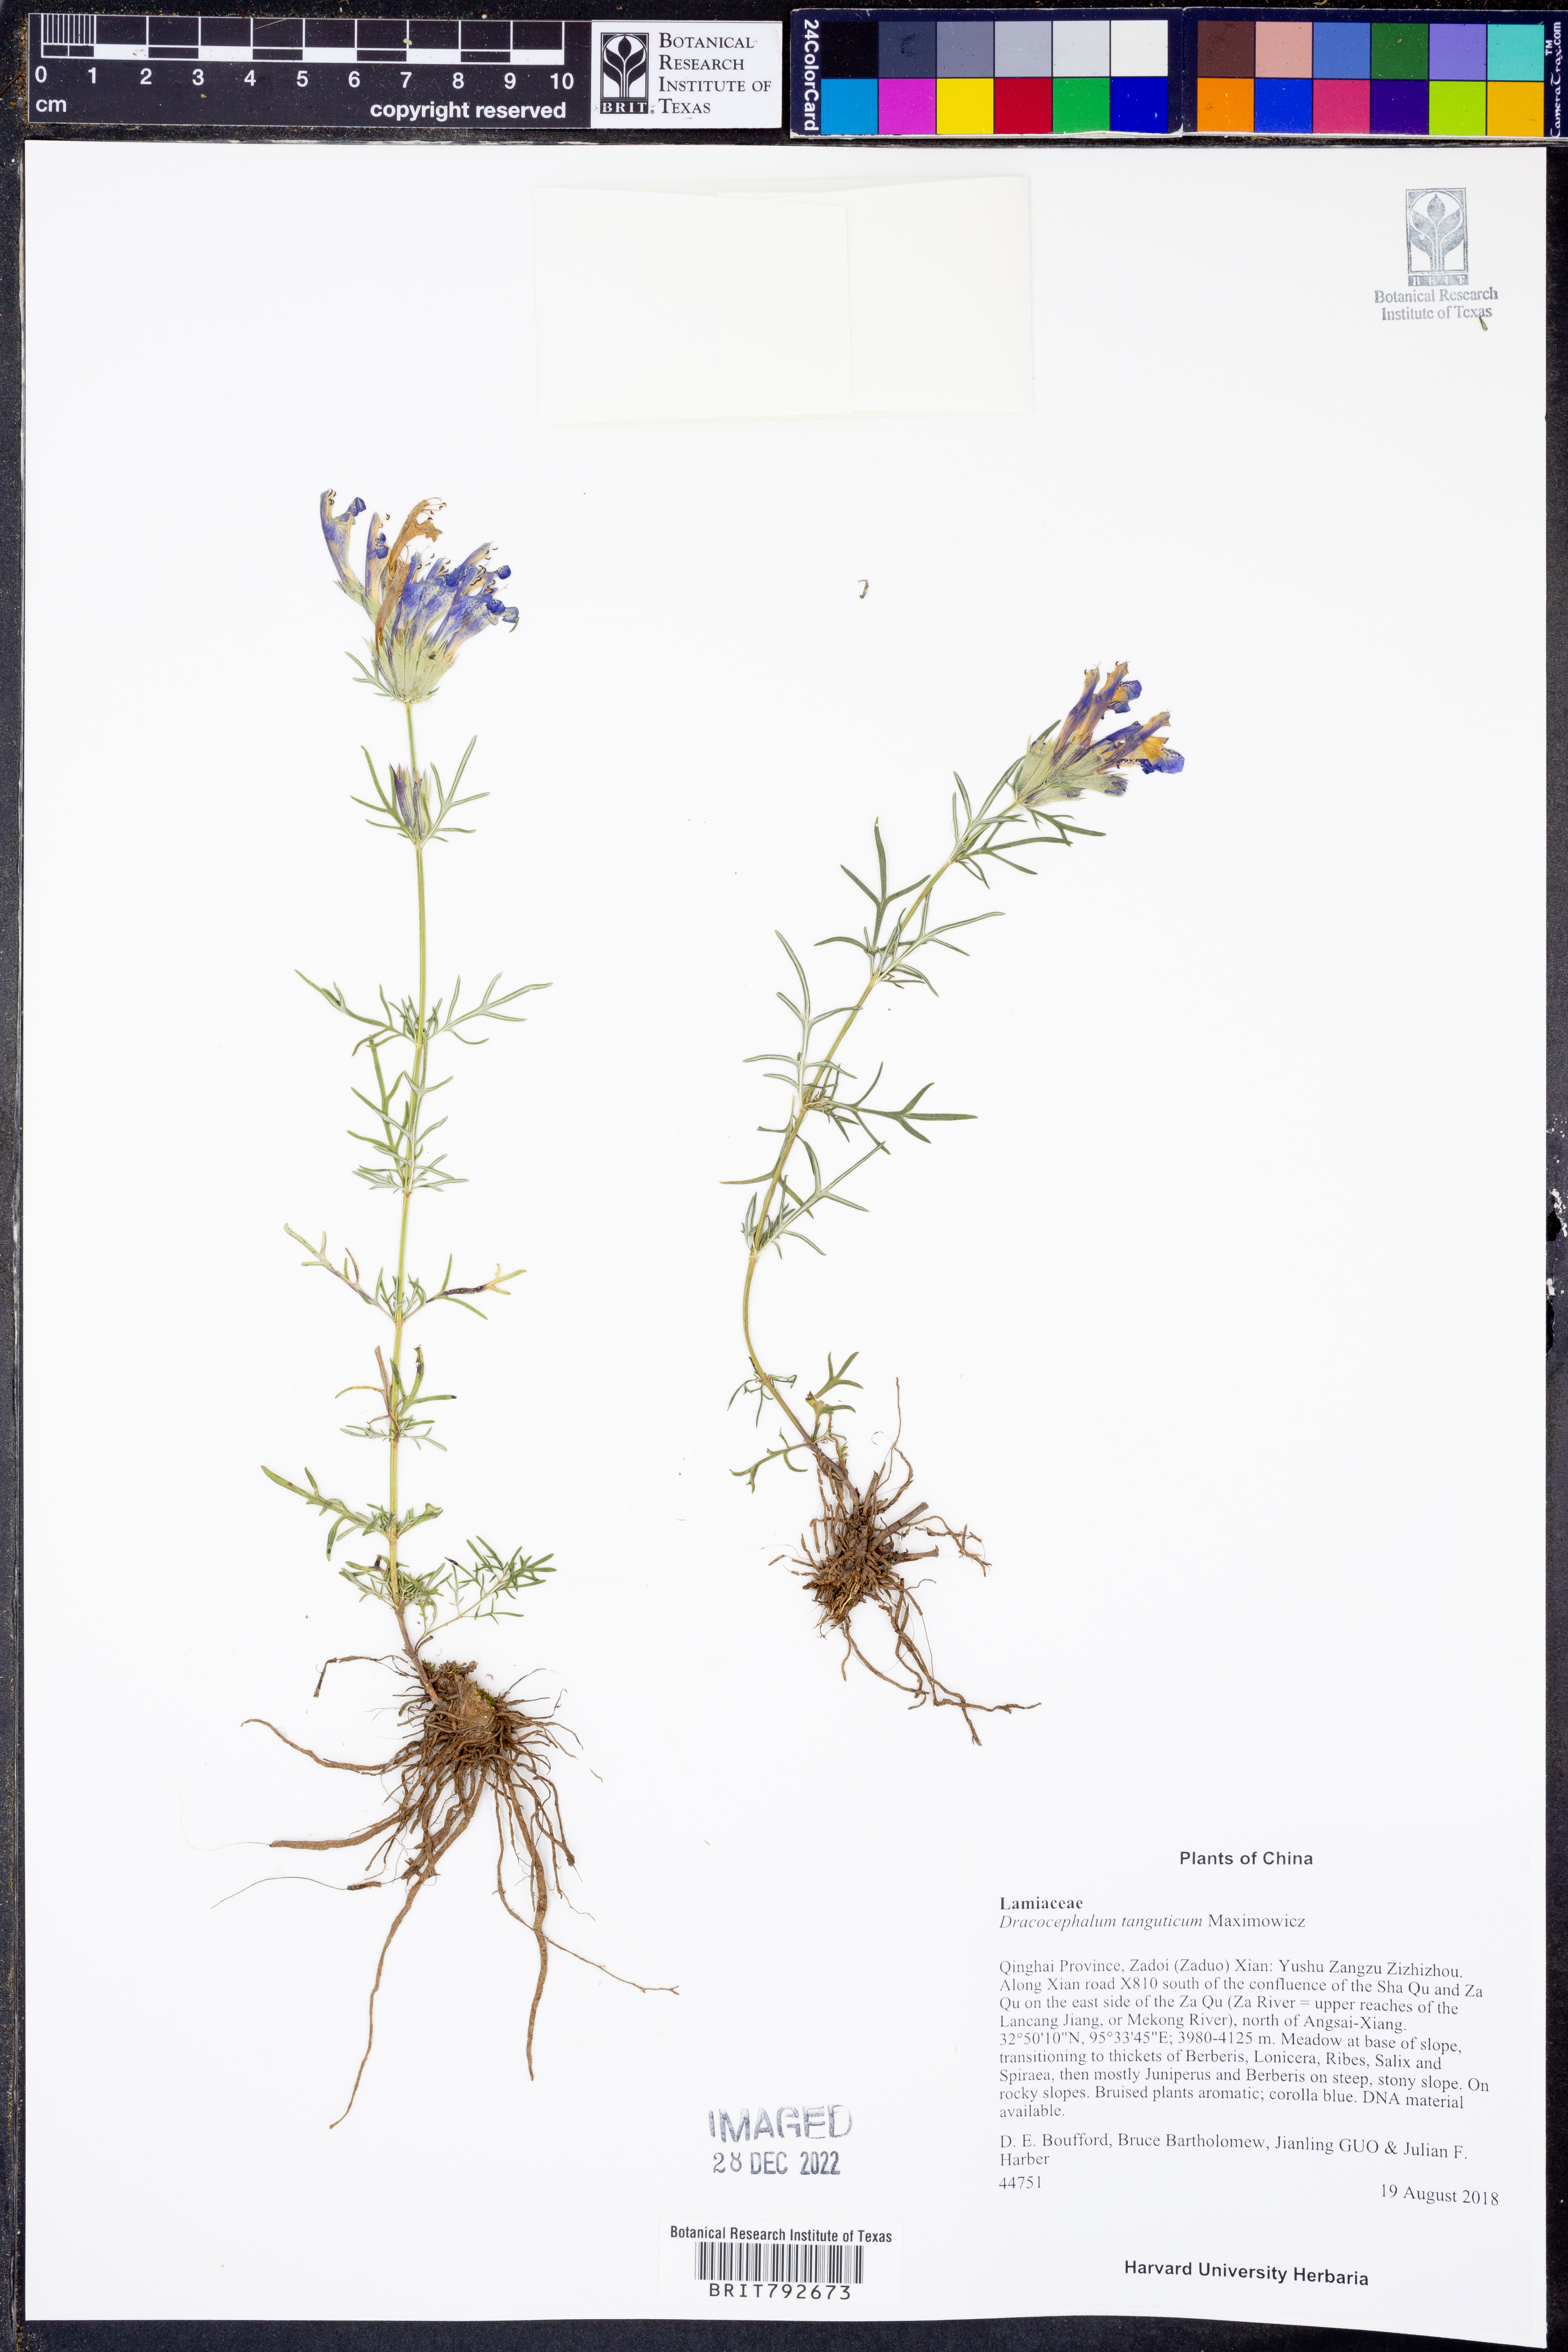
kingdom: Plantae
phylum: Tracheophyta
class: Magnoliopsida
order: Lamiales
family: Lamiaceae
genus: Dracocephalum
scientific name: Dracocephalum tanguticum
